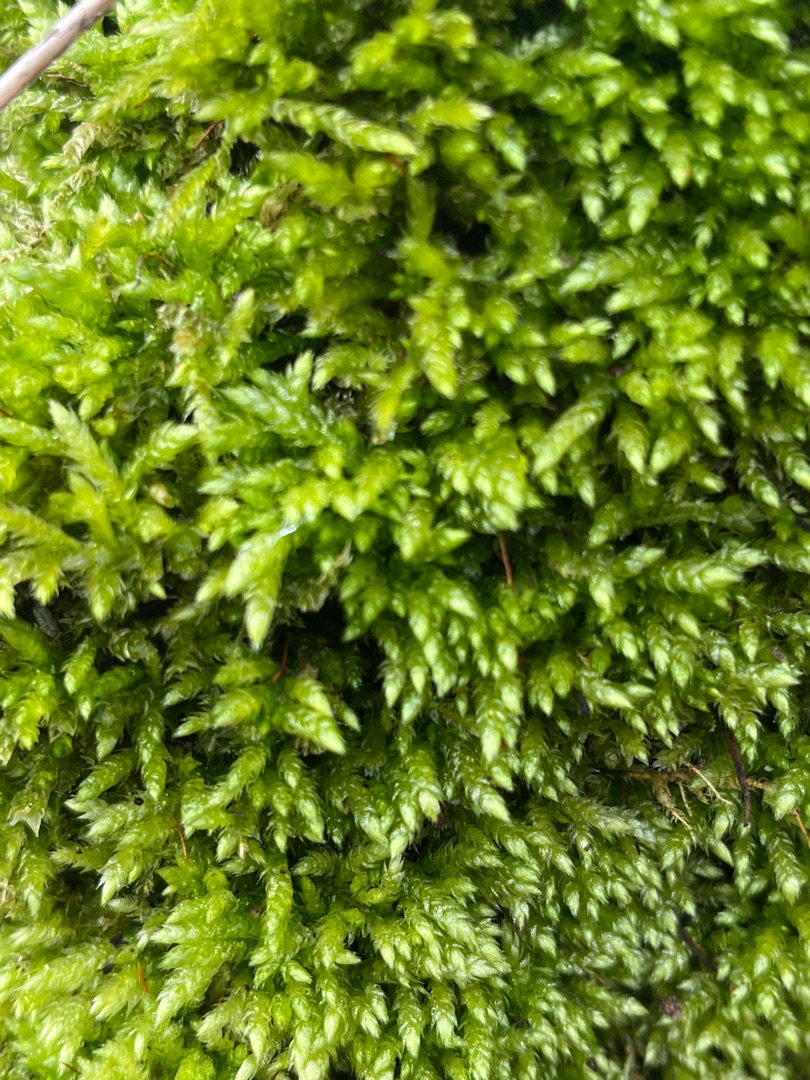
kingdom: Plantae
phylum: Bryophyta
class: Bryopsida
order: Hypnales
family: Brachytheciaceae
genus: Brachythecium
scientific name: Brachythecium rutabulum
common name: Almindelig kortkapsel
